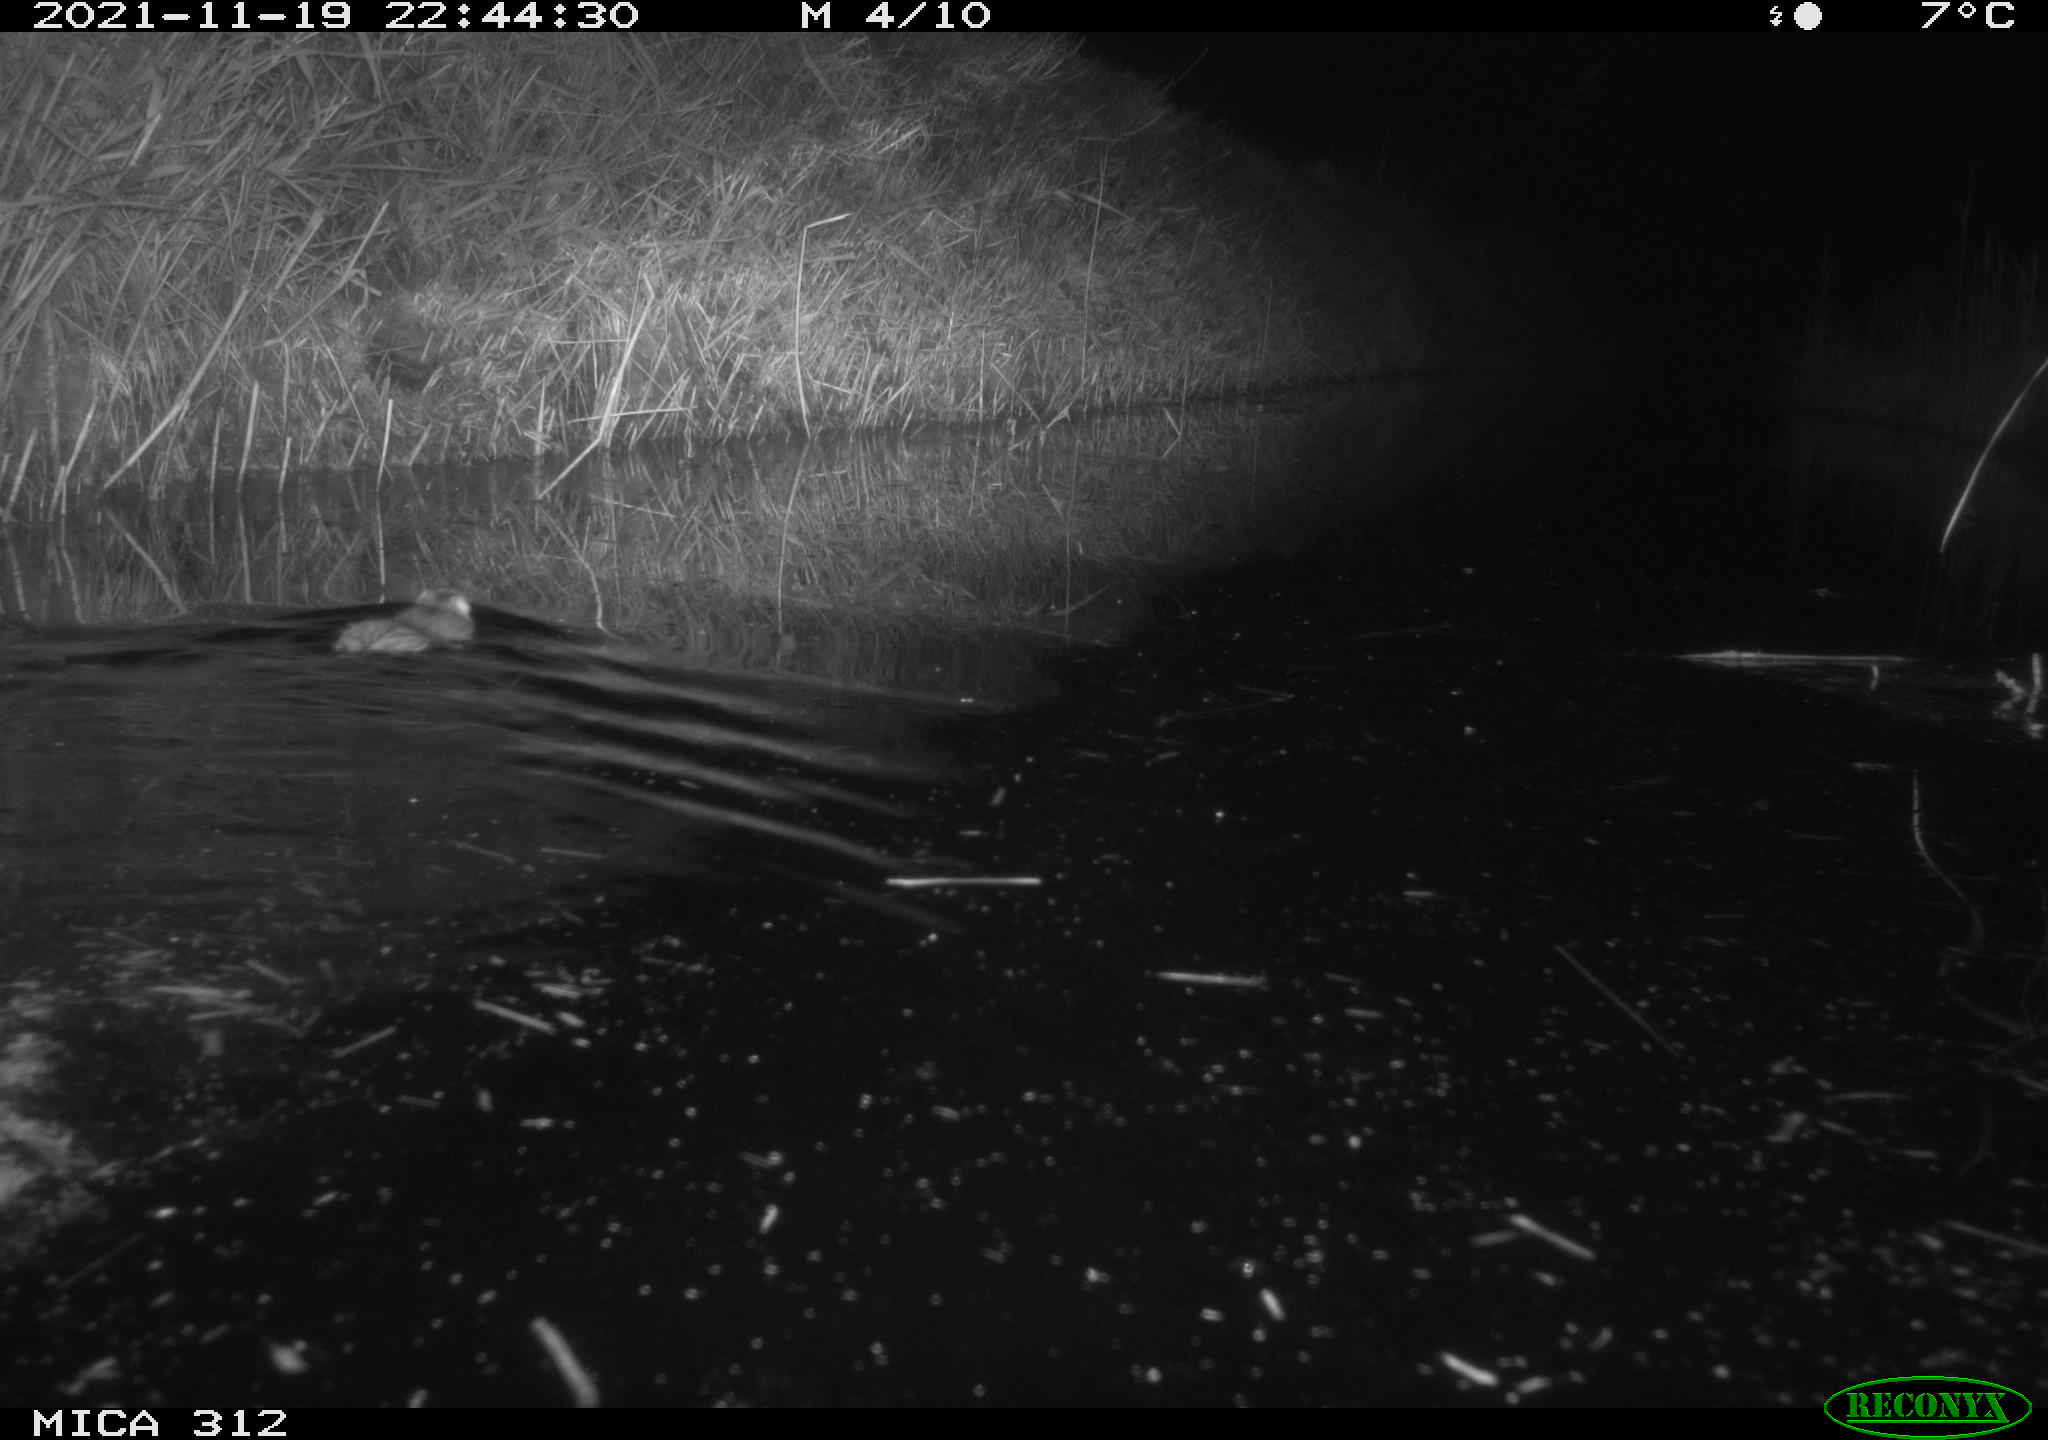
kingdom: Animalia
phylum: Chordata
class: Mammalia
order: Rodentia
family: Muridae
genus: Rattus
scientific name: Rattus norvegicus
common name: Brown rat
